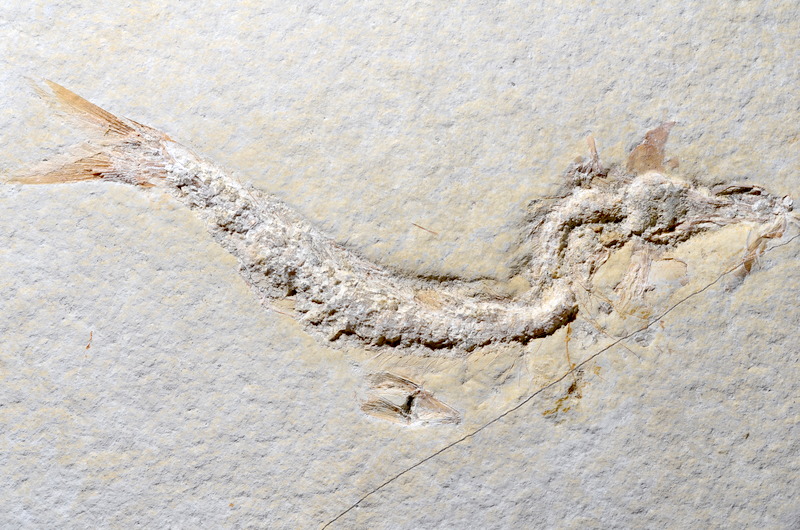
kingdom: Animalia
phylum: Chordata
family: Ascalaboidae
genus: Tharsis
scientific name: Tharsis dubius
